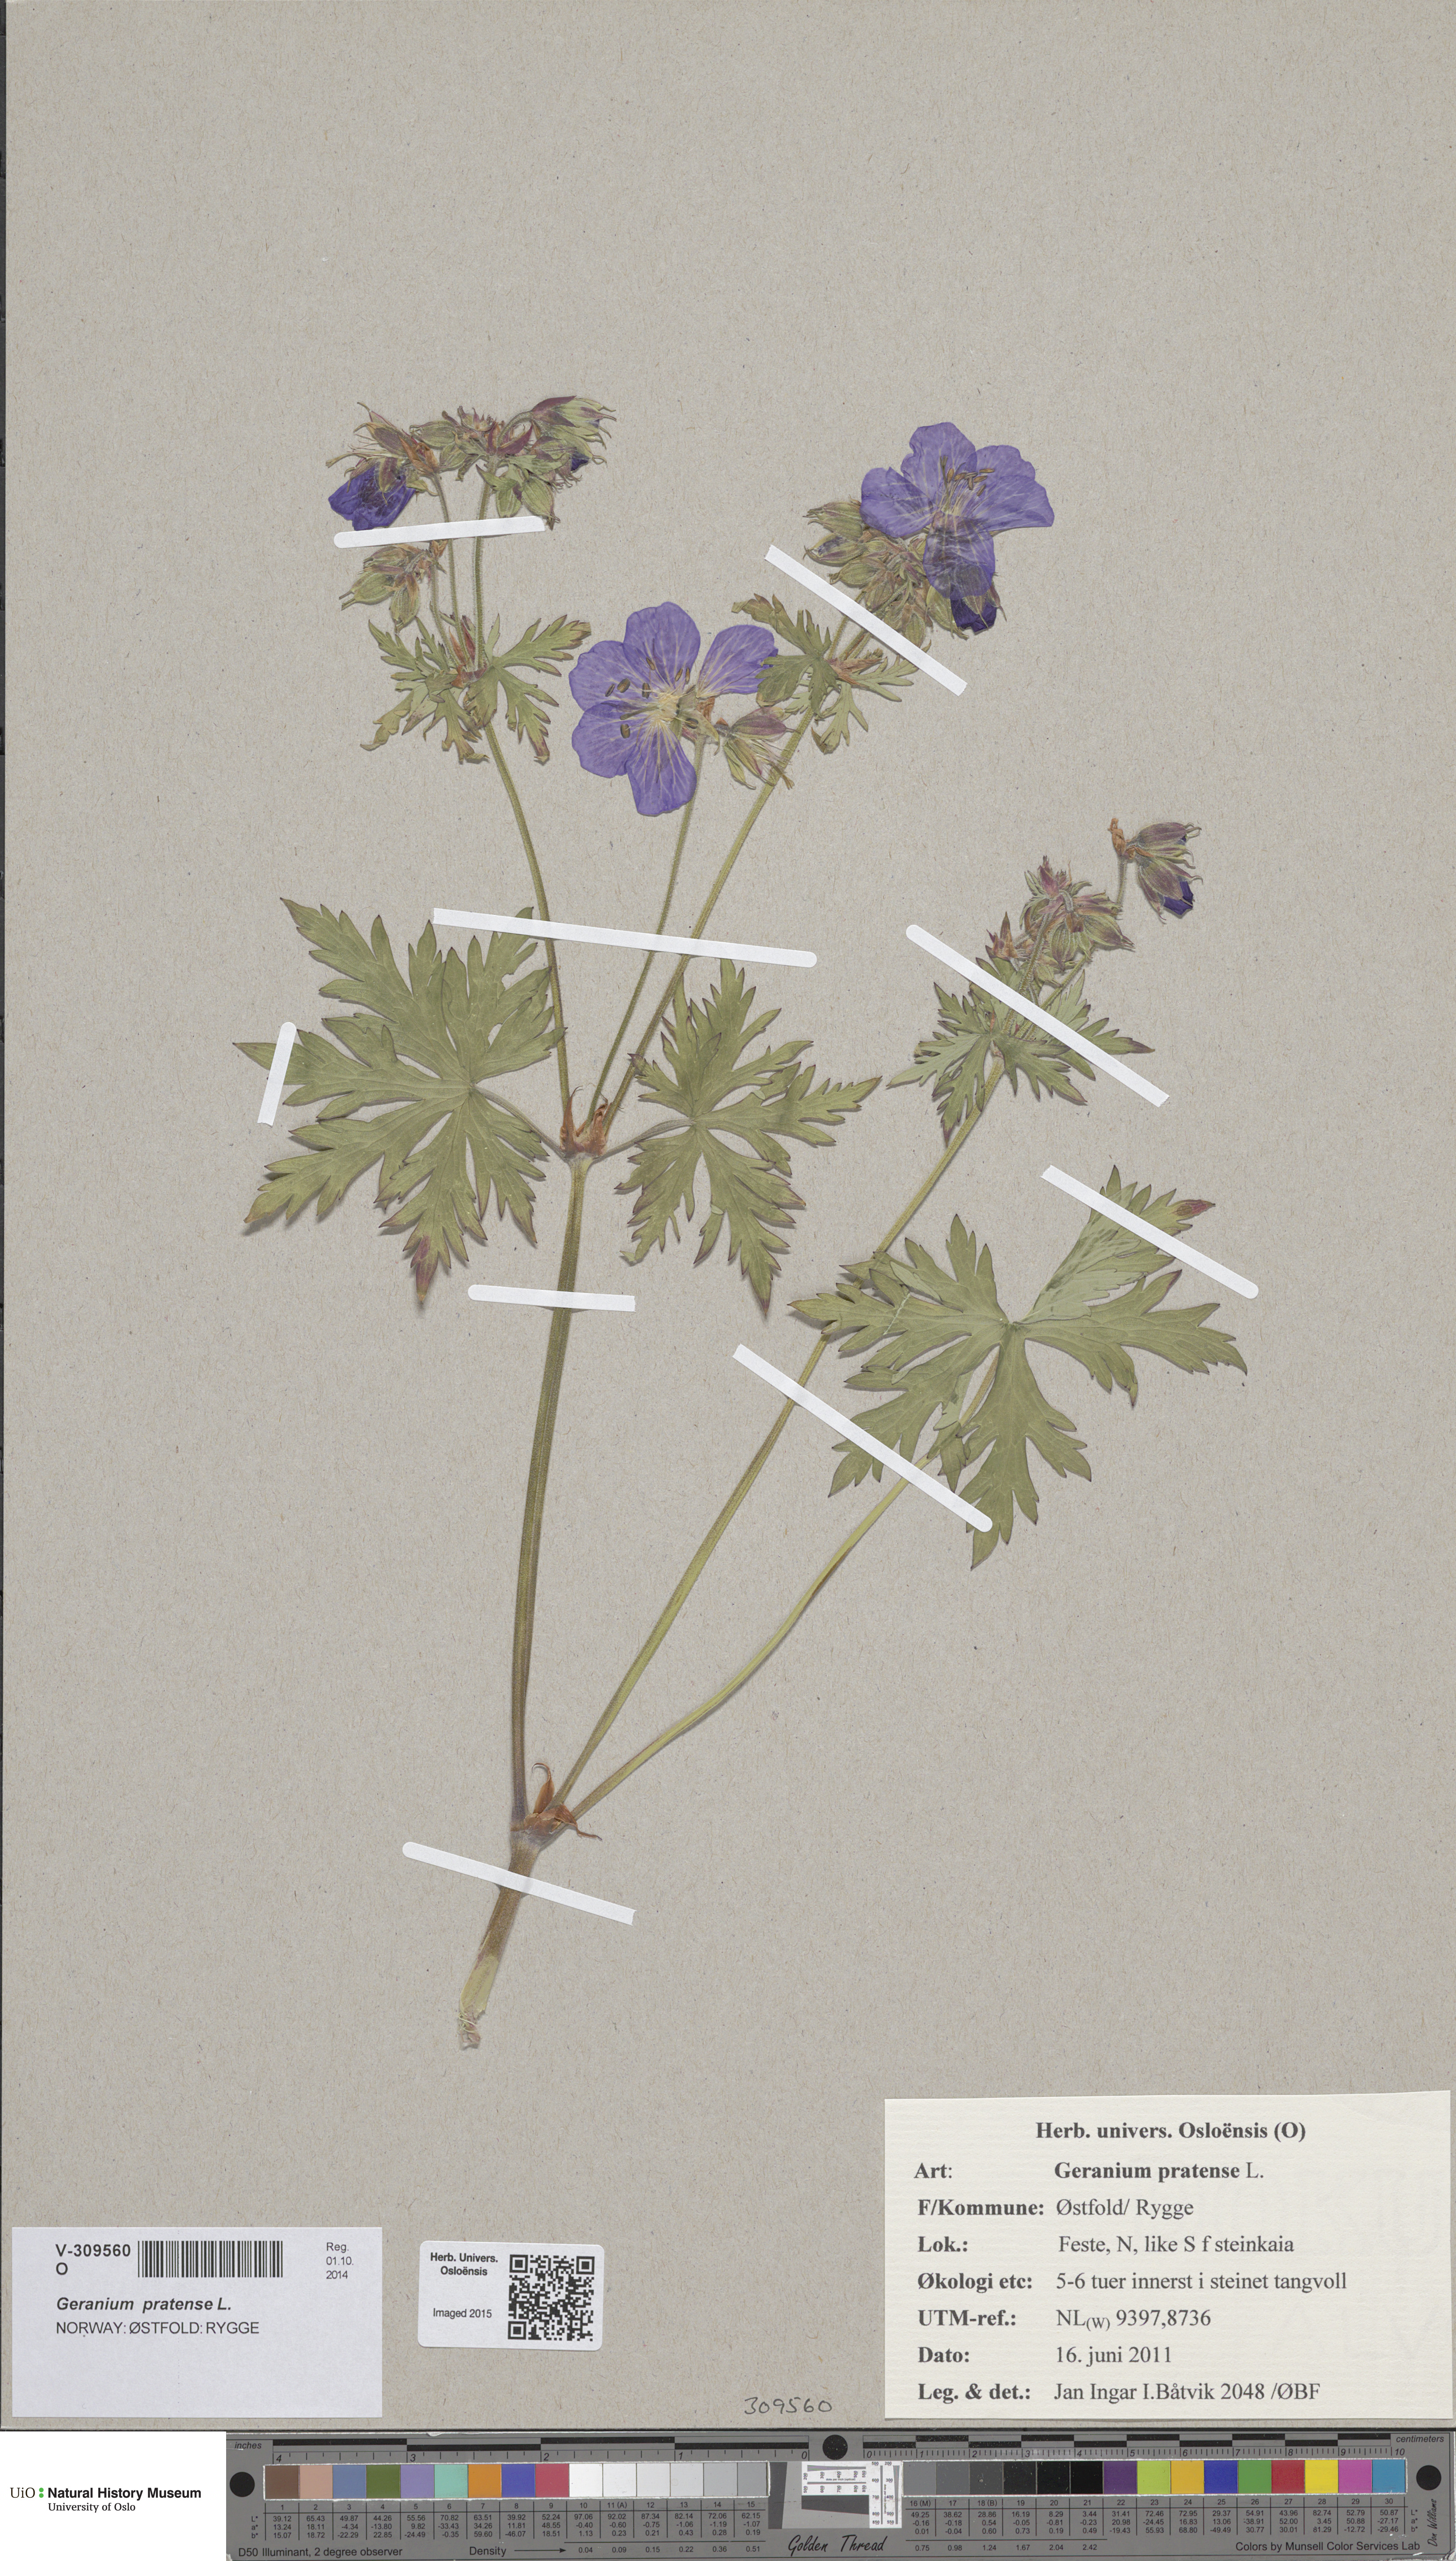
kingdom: Plantae
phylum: Tracheophyta
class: Magnoliopsida
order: Geraniales
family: Geraniaceae
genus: Geranium
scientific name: Geranium pratense
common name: Meadow crane's-bill
